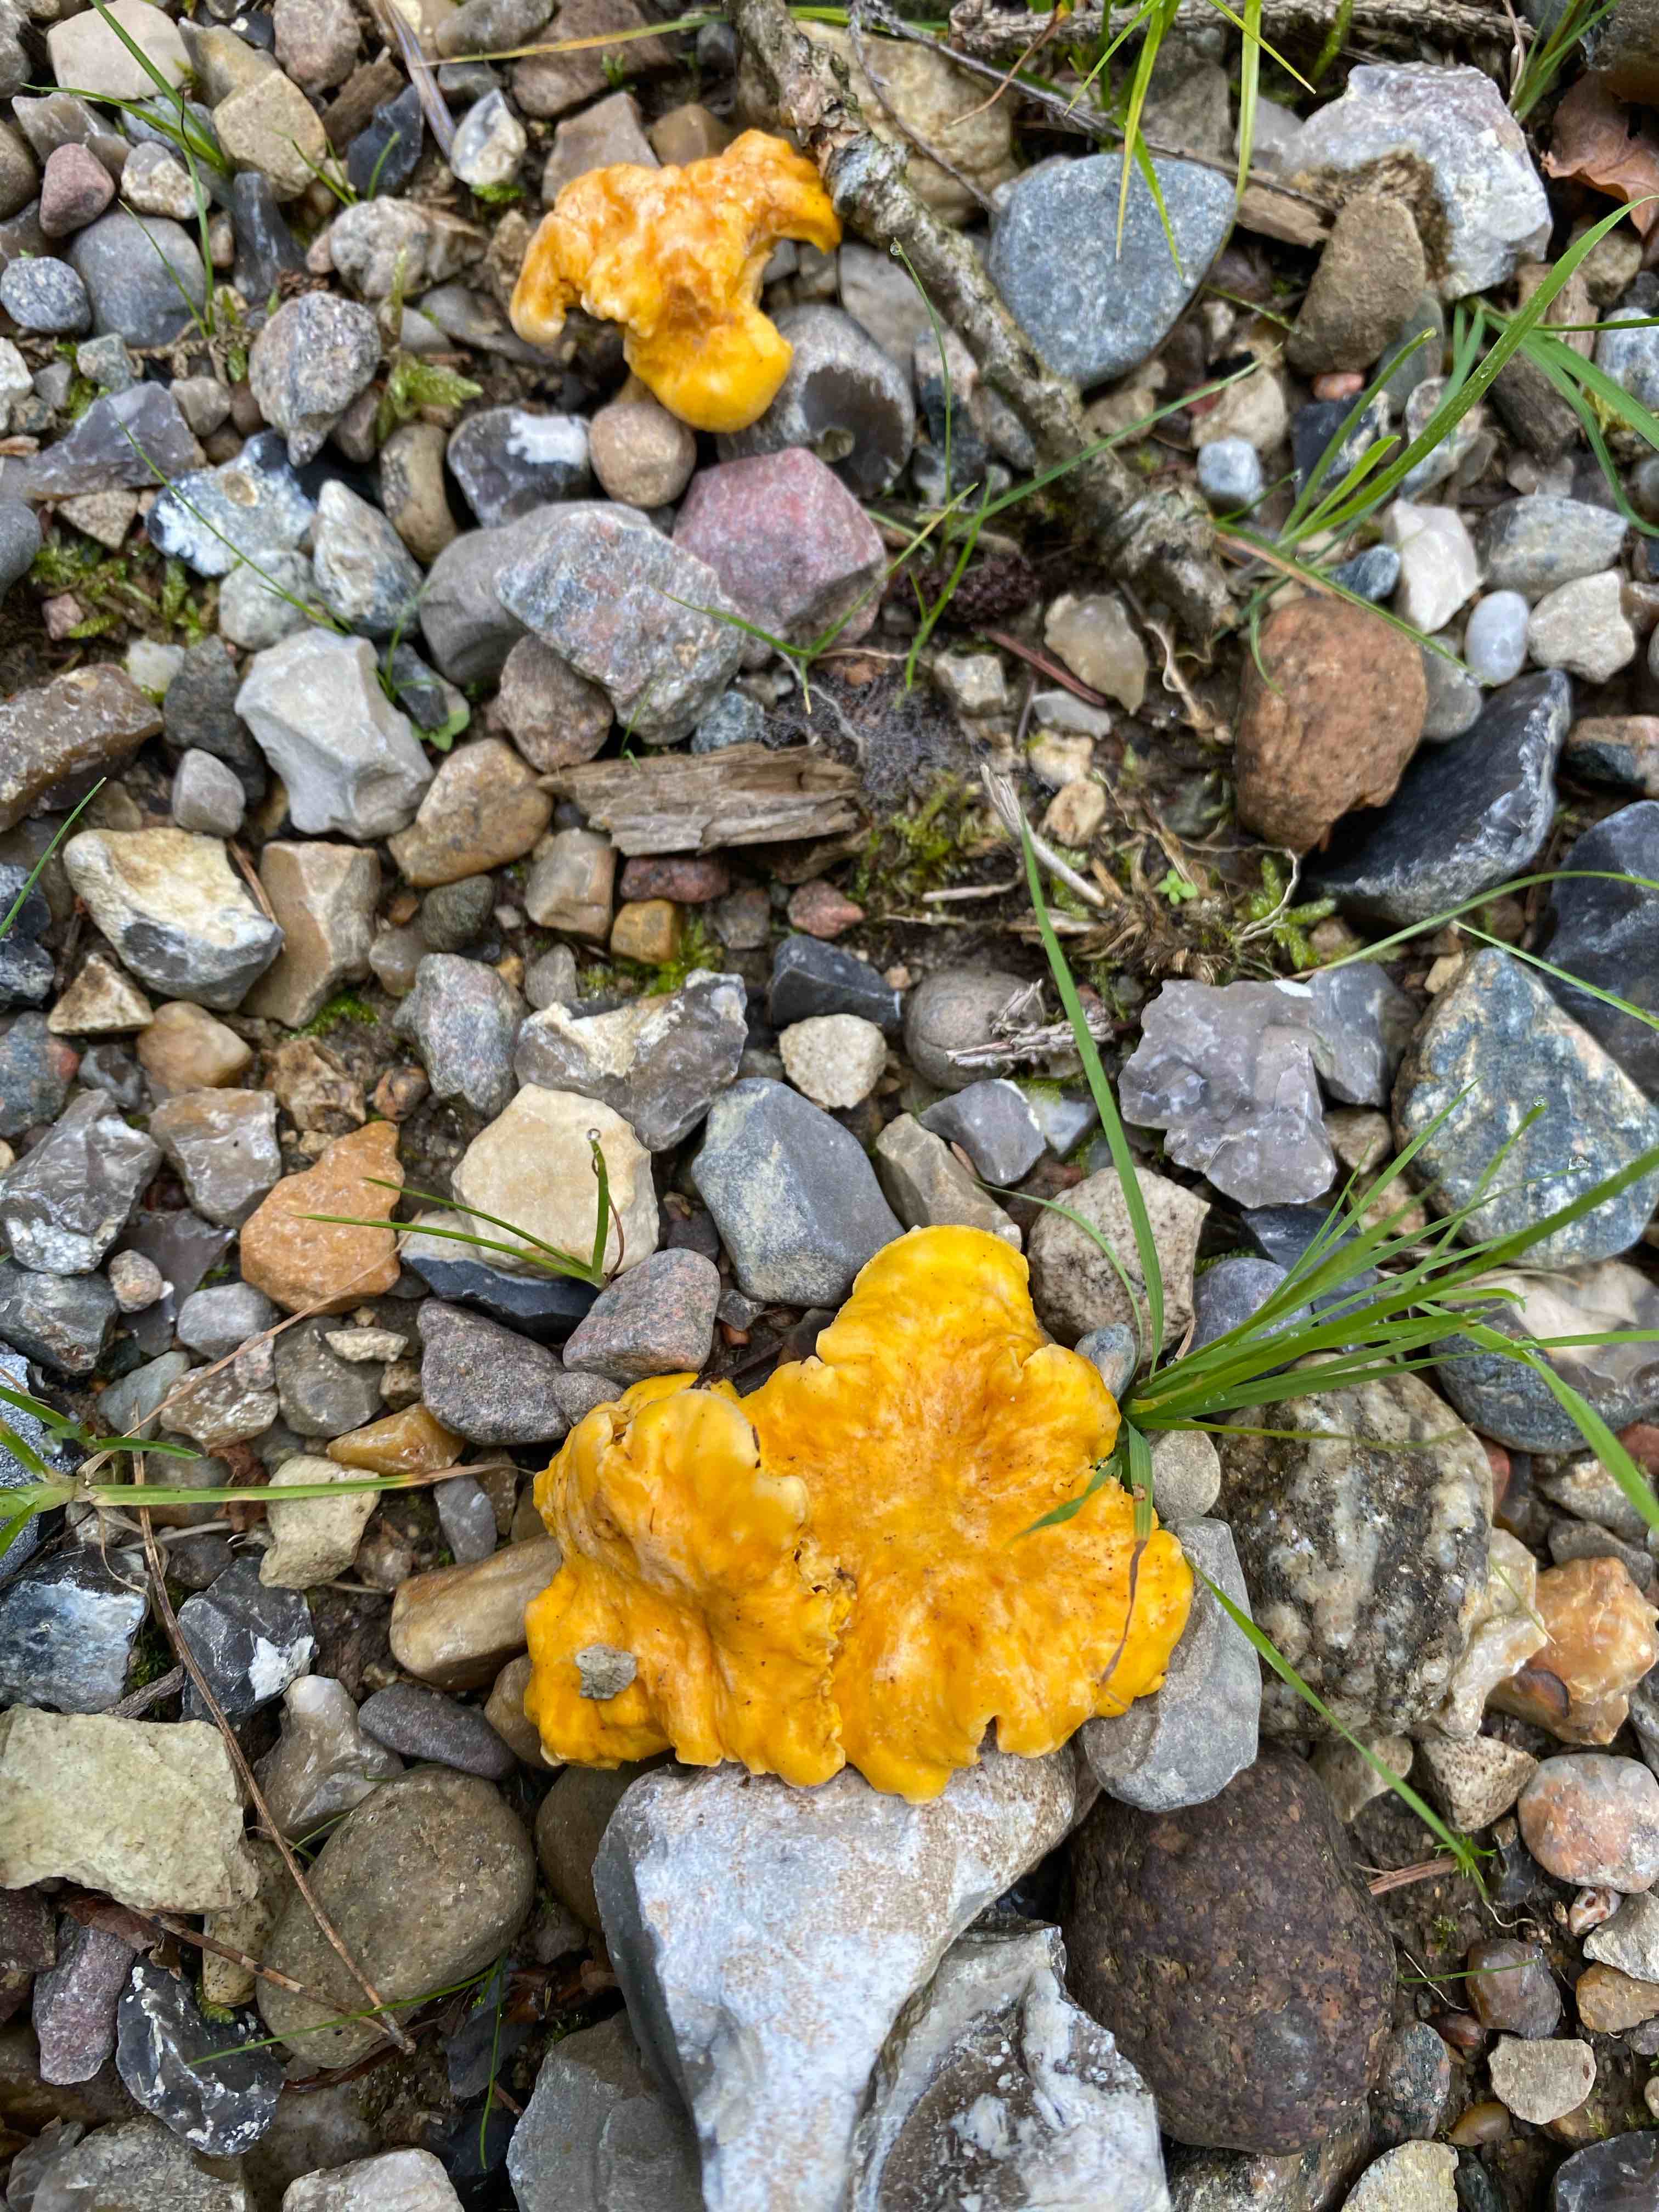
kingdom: Fungi
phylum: Basidiomycota
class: Agaricomycetes
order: Cantharellales
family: Hydnaceae
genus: Cantharellus
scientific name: Cantharellus cibarius
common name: almindelig kantarel
